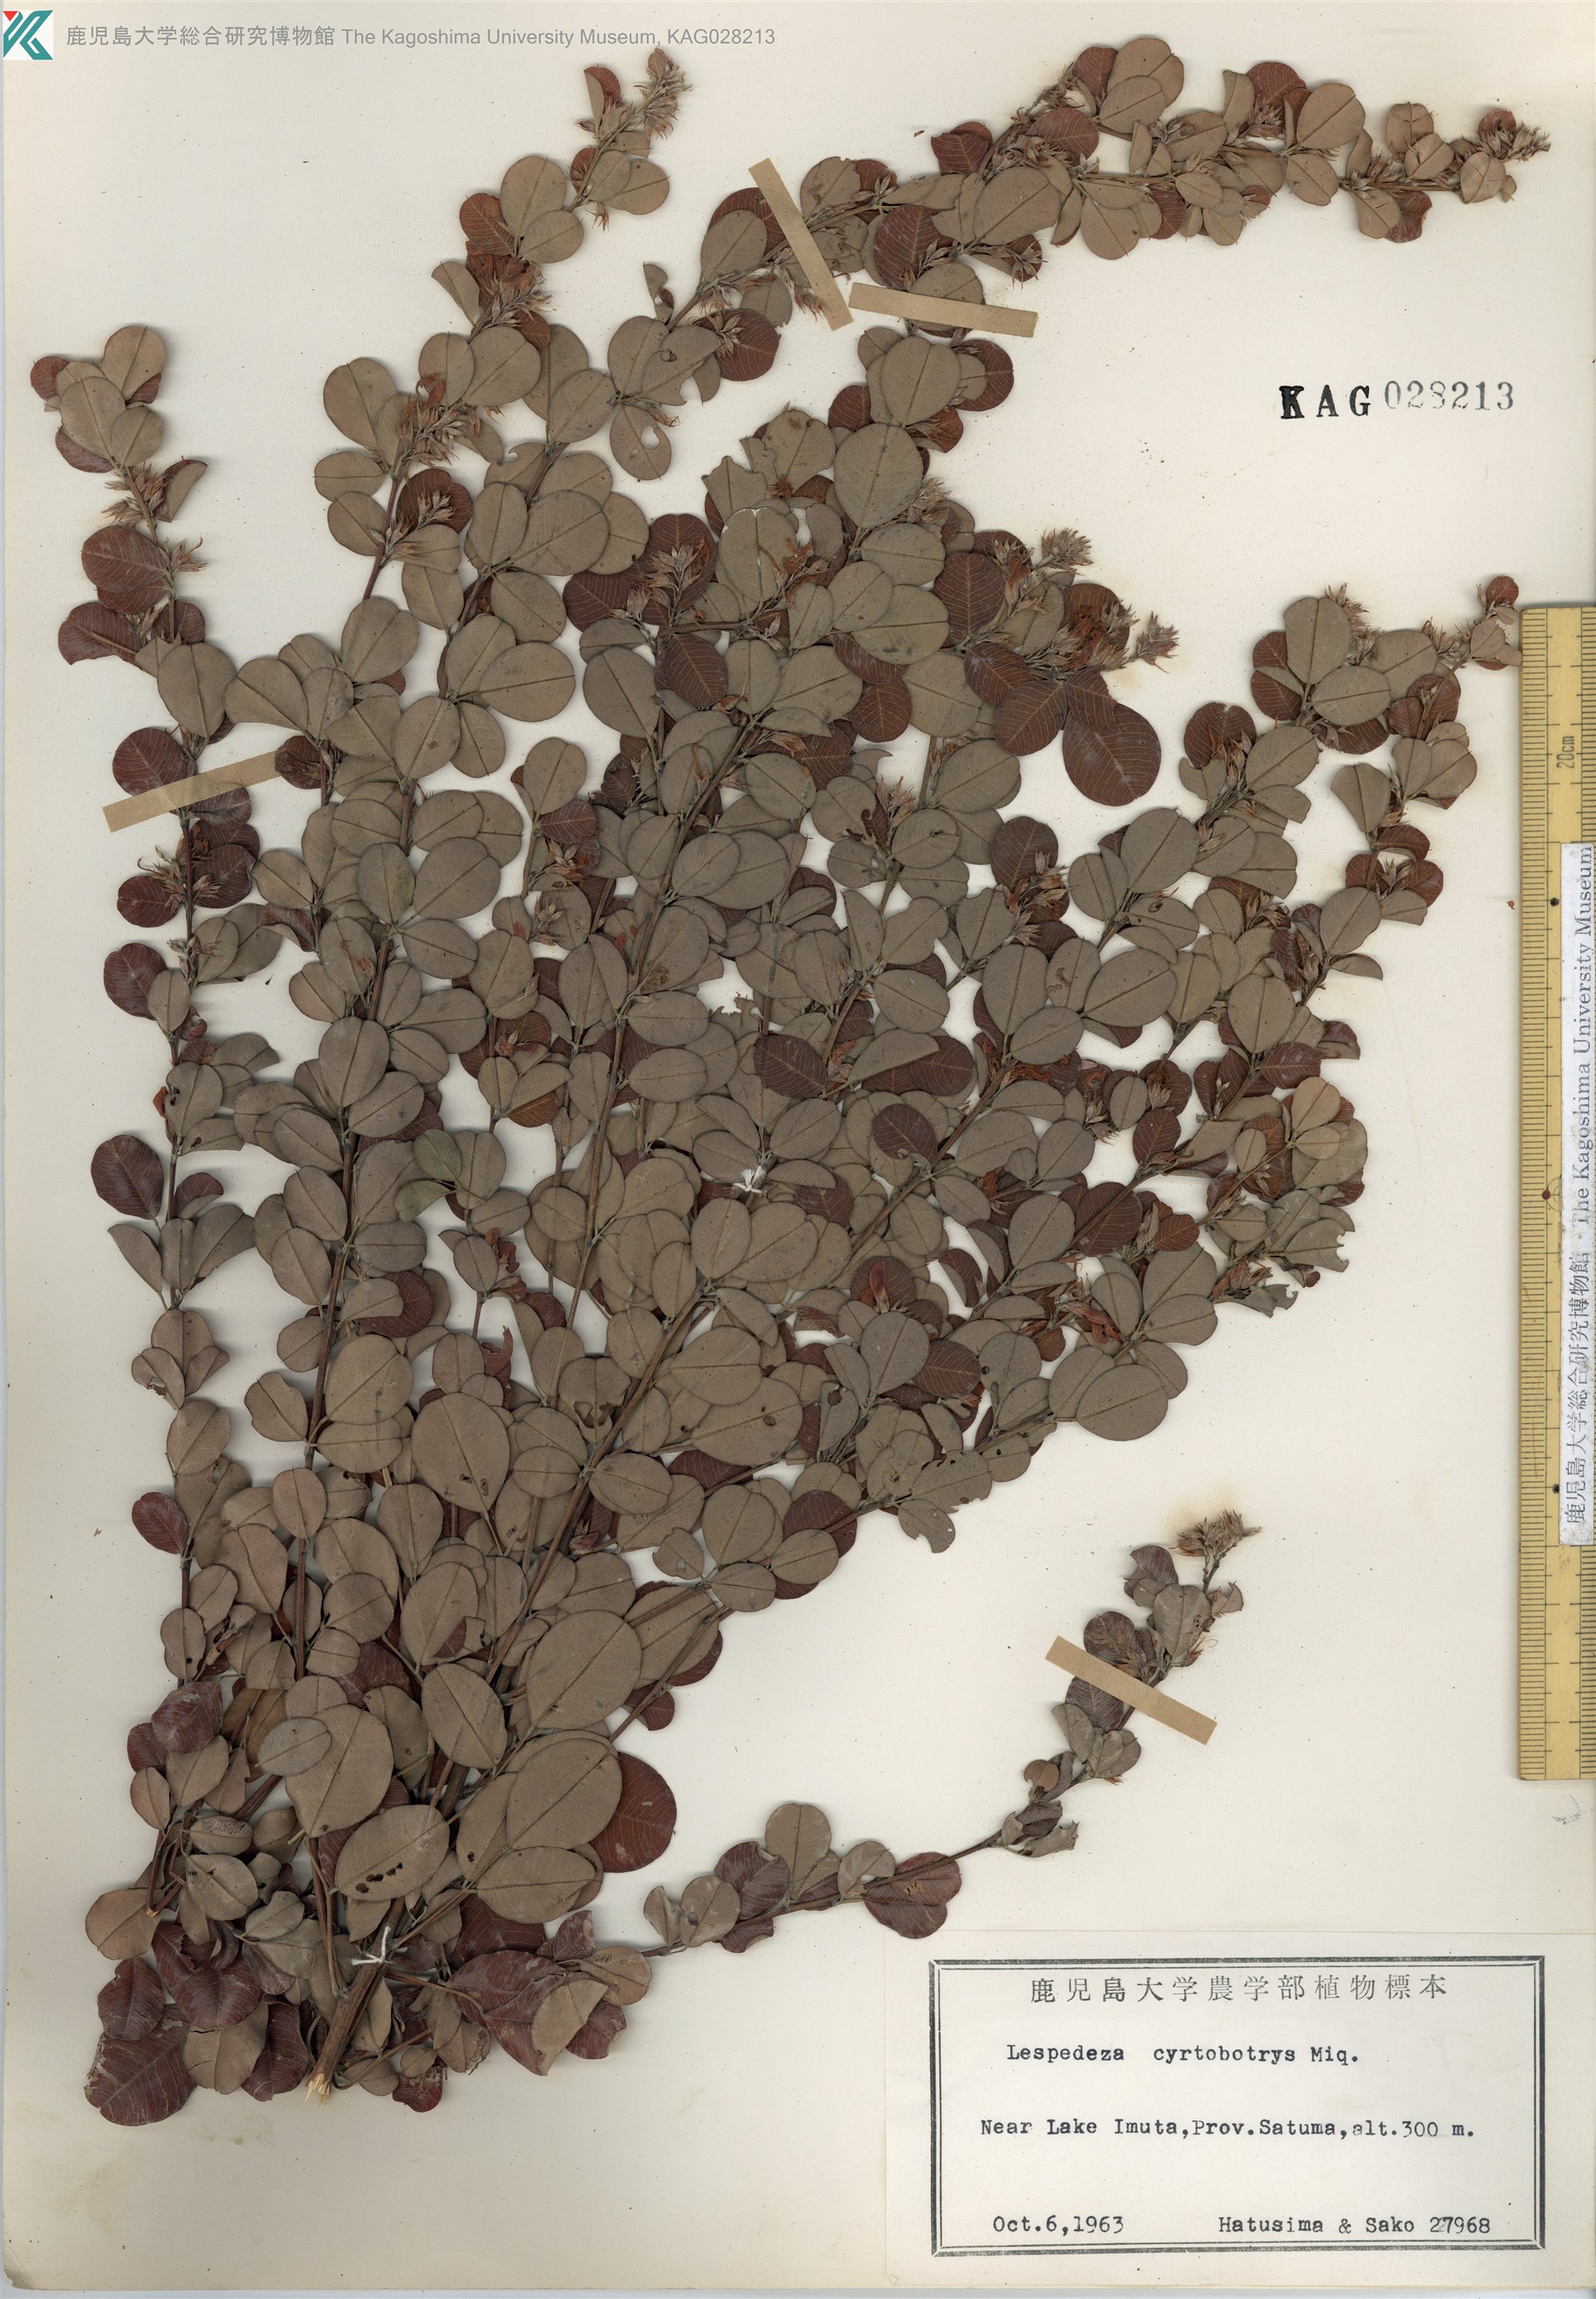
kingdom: Plantae
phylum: Tracheophyta
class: Magnoliopsida
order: Fabales
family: Fabaceae
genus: Lespedeza
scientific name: Lespedeza cyrtobotrya
